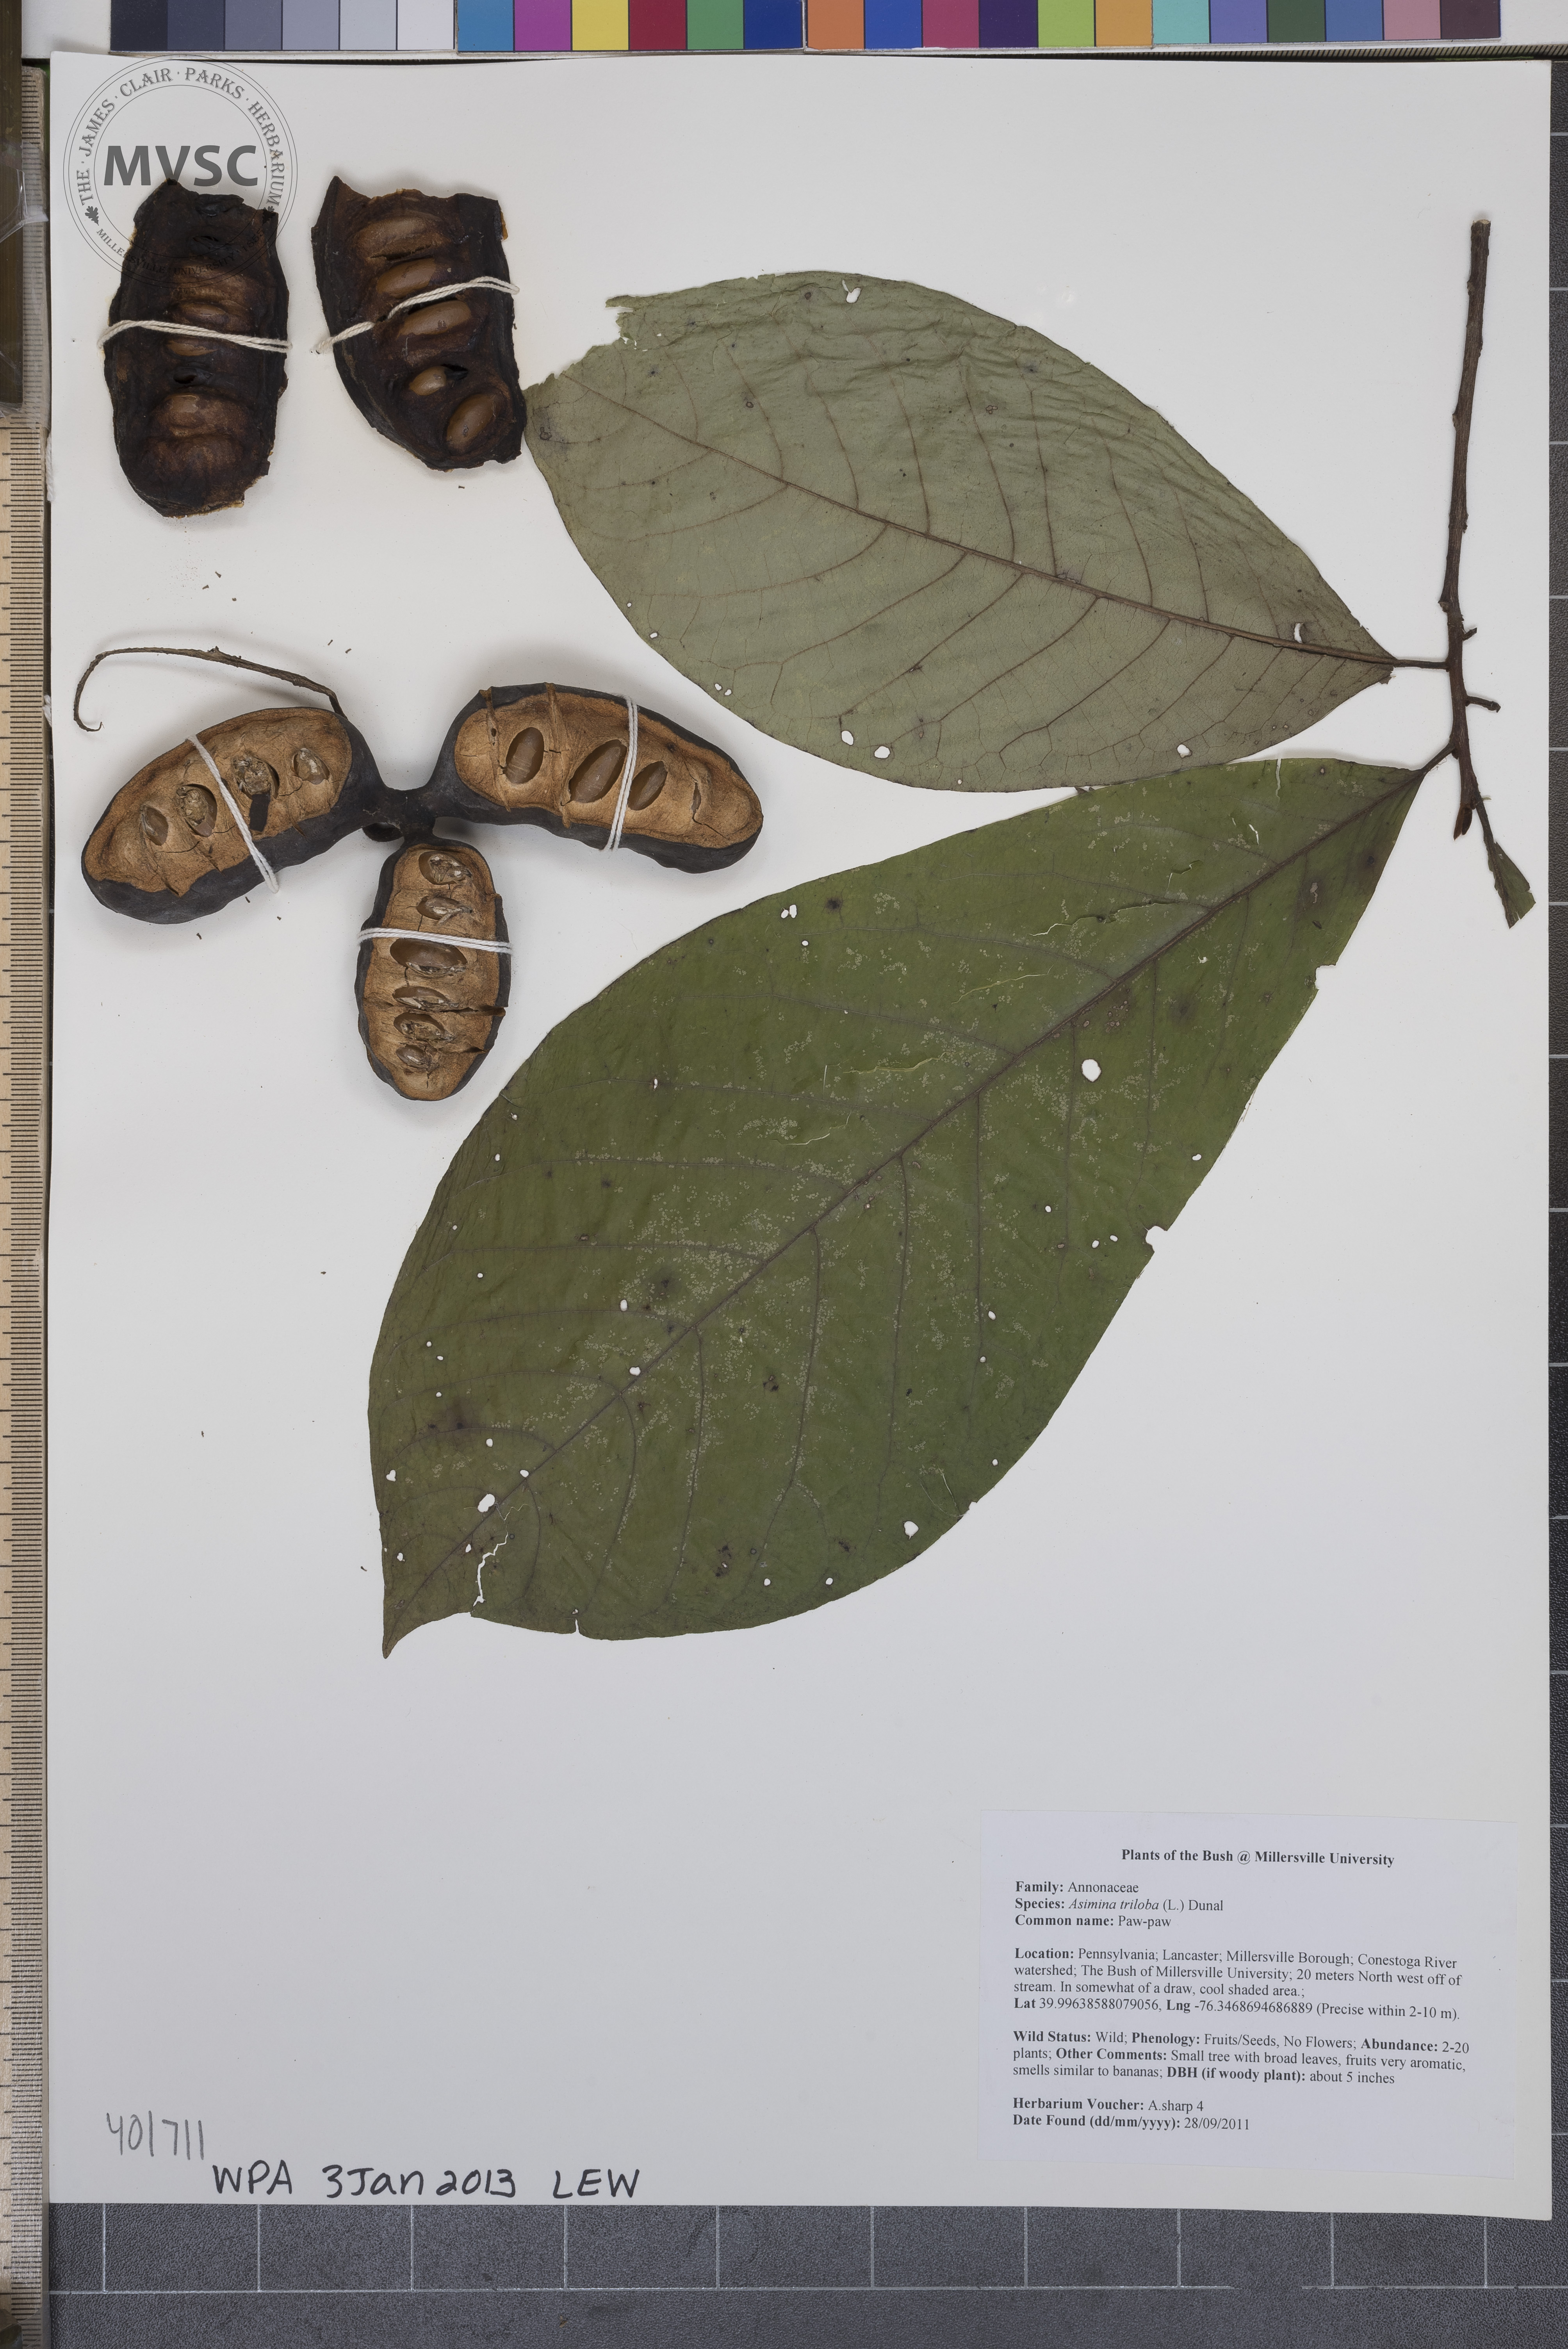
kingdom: Plantae
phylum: Tracheophyta
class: Magnoliopsida
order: Magnoliales
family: Annonaceae
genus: Asimina
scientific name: Asimina triloba
